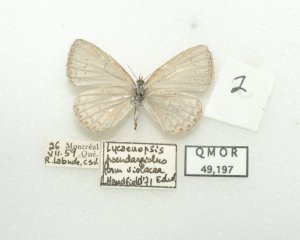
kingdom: Animalia
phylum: Arthropoda
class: Insecta
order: Lepidoptera
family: Lycaenidae
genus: Cyaniris
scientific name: Cyaniris neglecta
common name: Summer Azure
